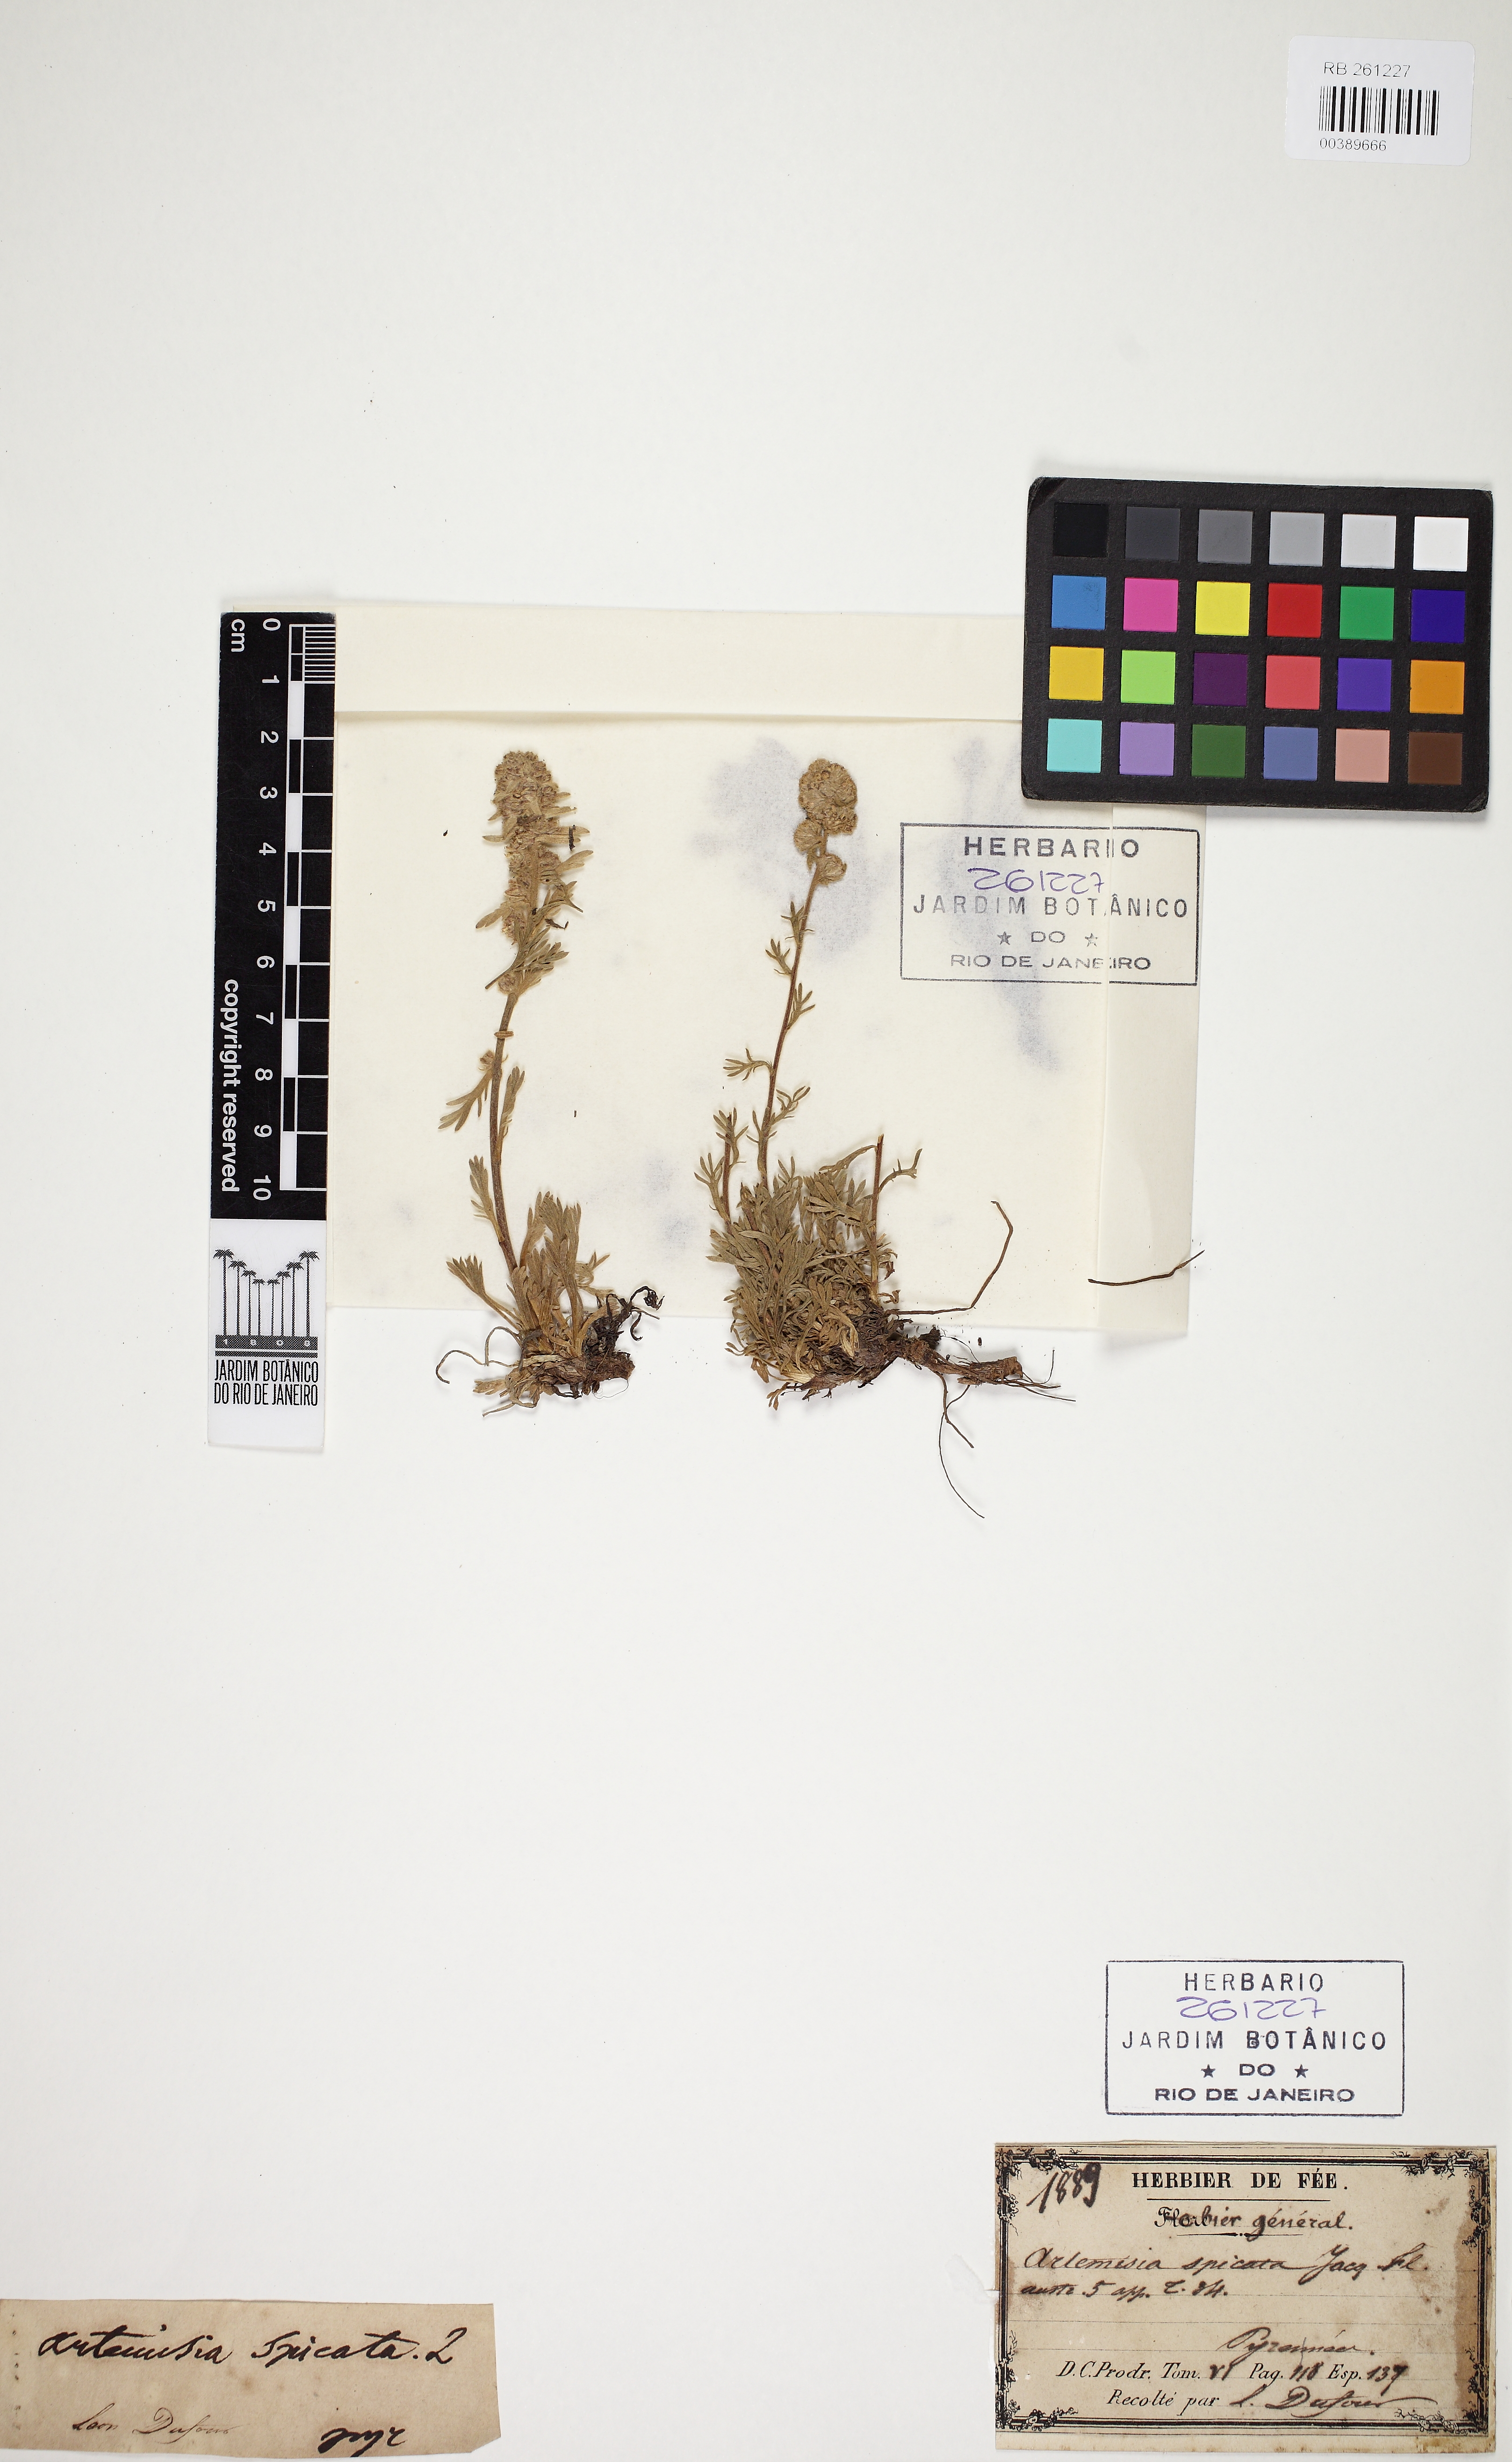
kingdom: Plantae
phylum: Tracheophyta
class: Magnoliopsida
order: Asterales
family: Asteraceae
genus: Artemisia
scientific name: Artemisia genipi
